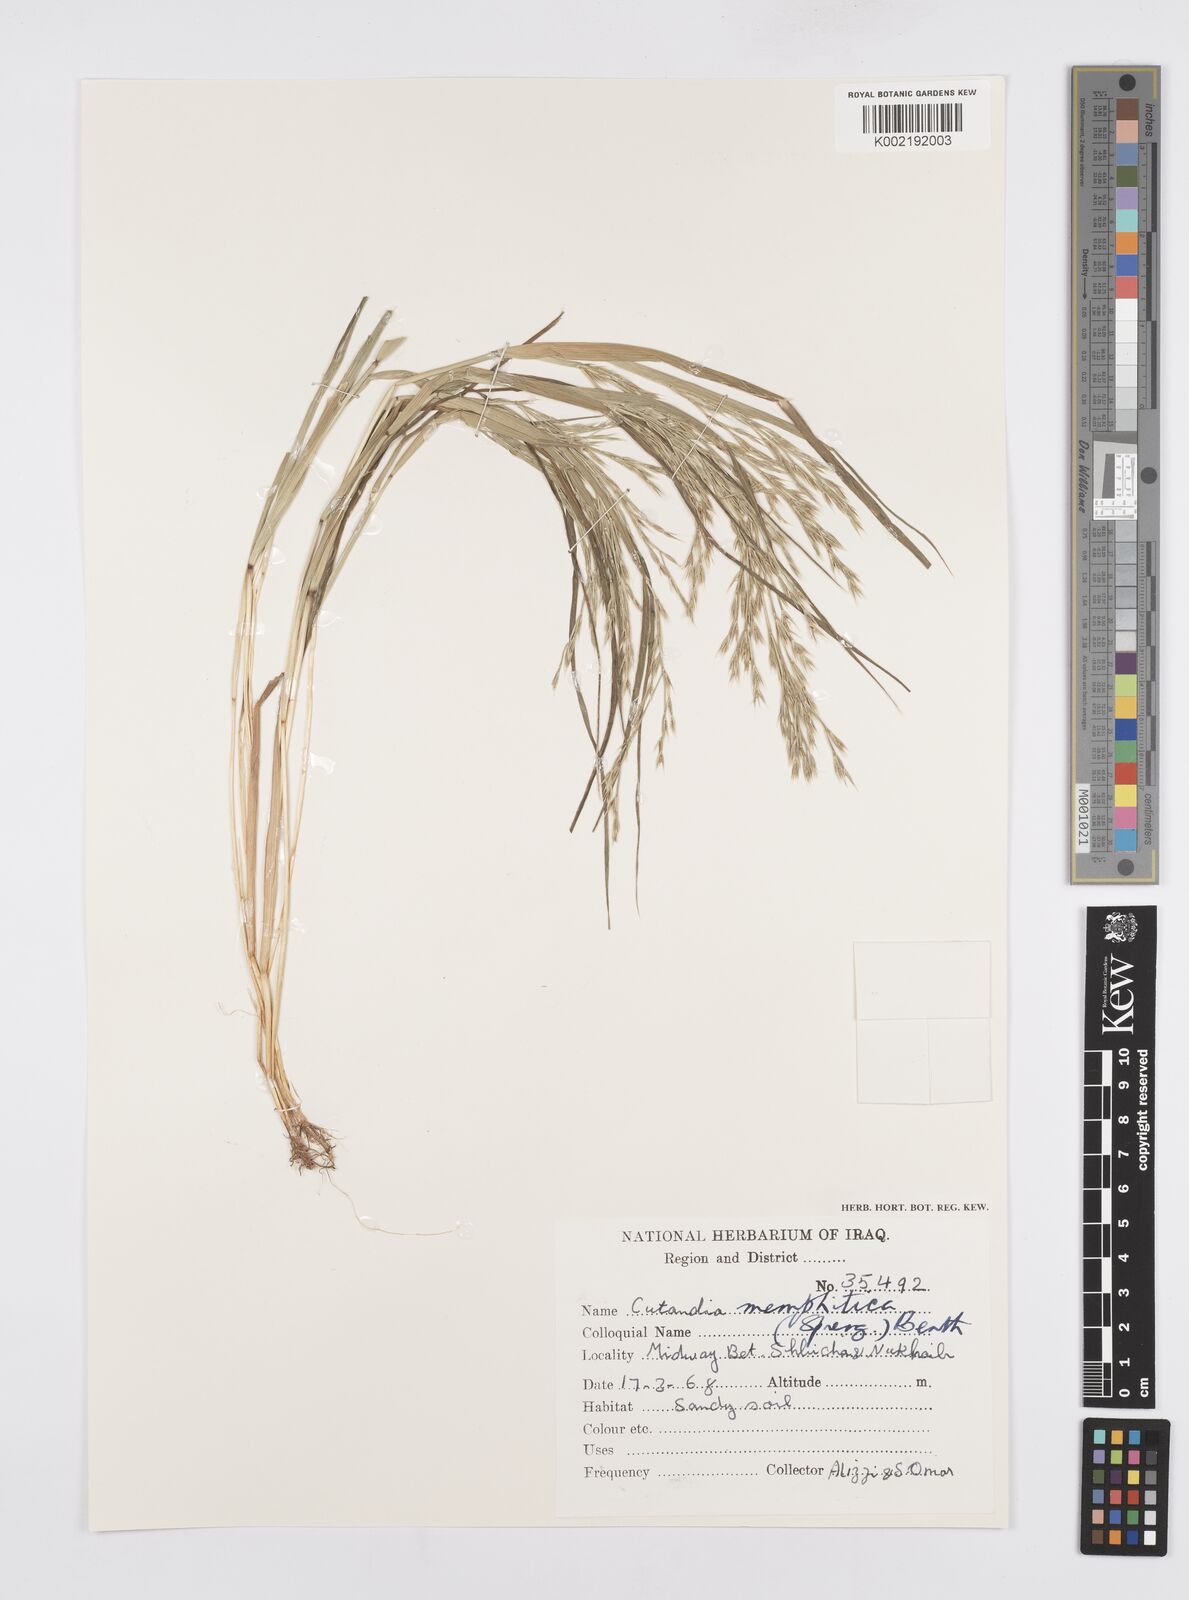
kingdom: Plantae
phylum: Tracheophyta
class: Liliopsida
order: Poales
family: Poaceae
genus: Cutandia
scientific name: Cutandia memphitica
